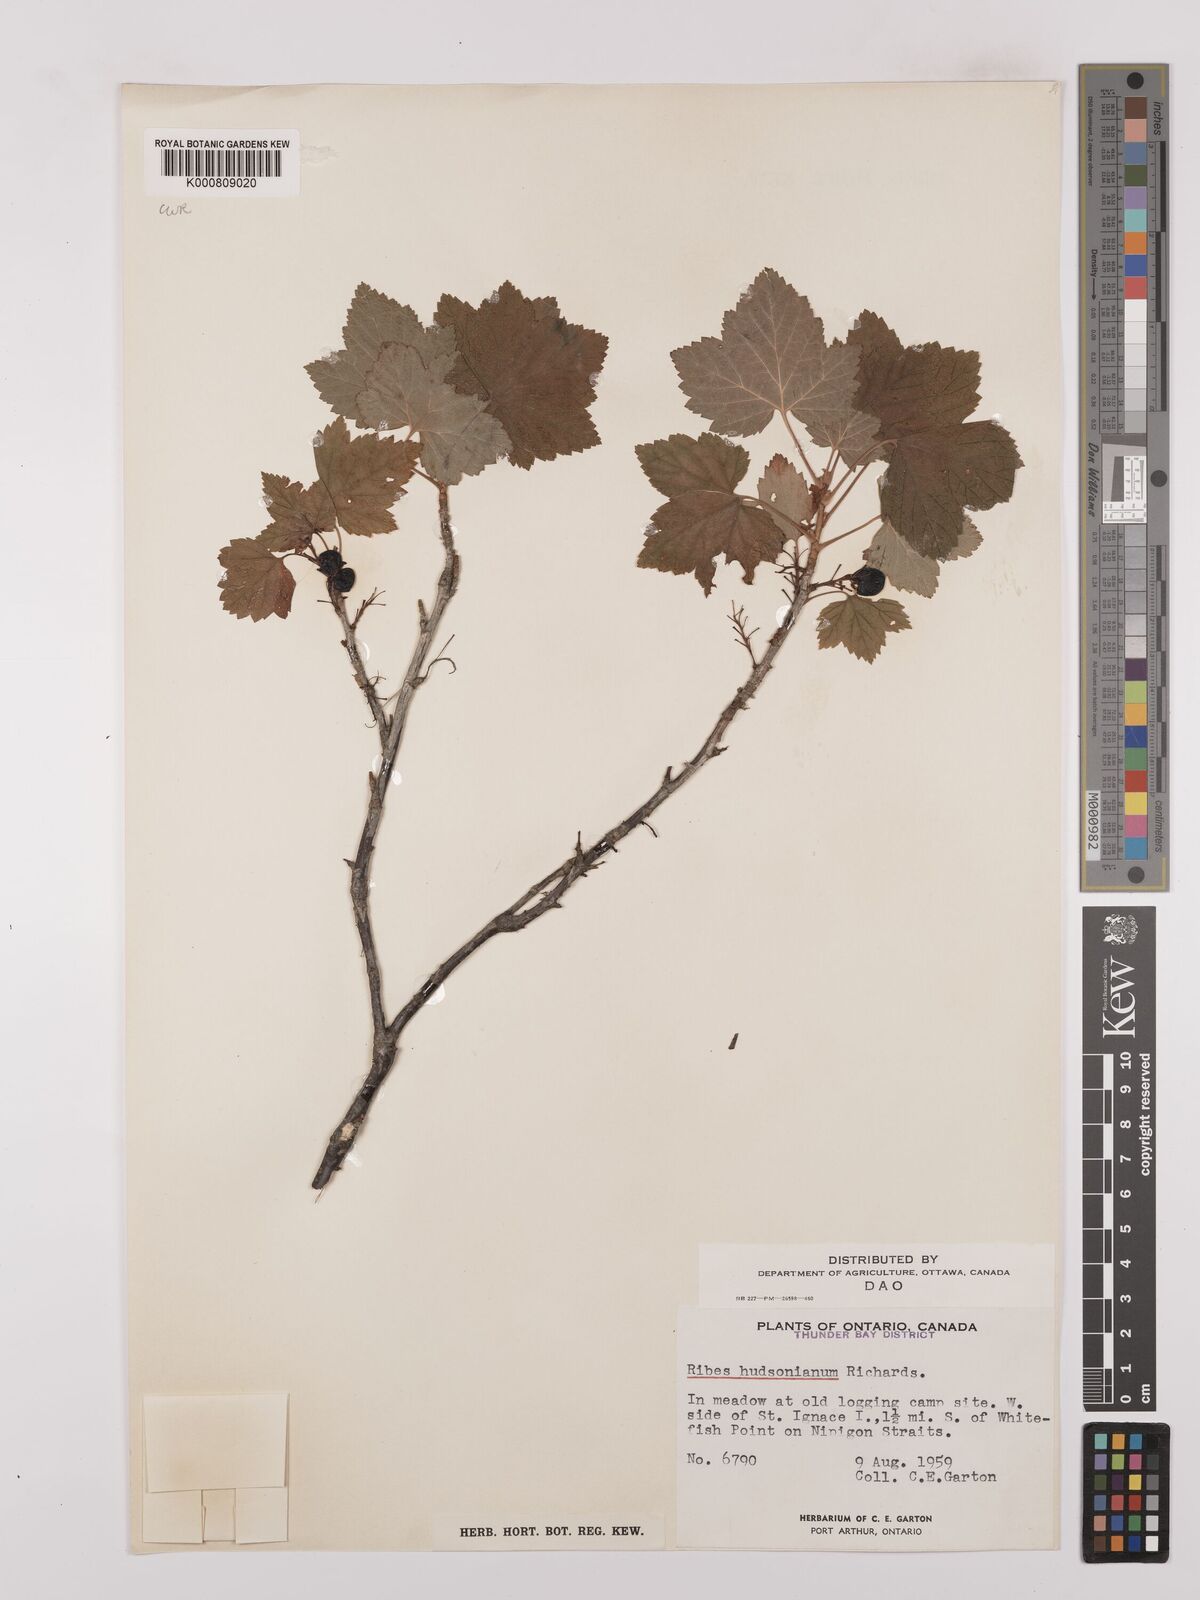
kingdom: Plantae
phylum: Tracheophyta
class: Magnoliopsida
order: Saxifragales
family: Grossulariaceae
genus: Ribes
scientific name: Ribes hudsonianum
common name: Northern black currant
